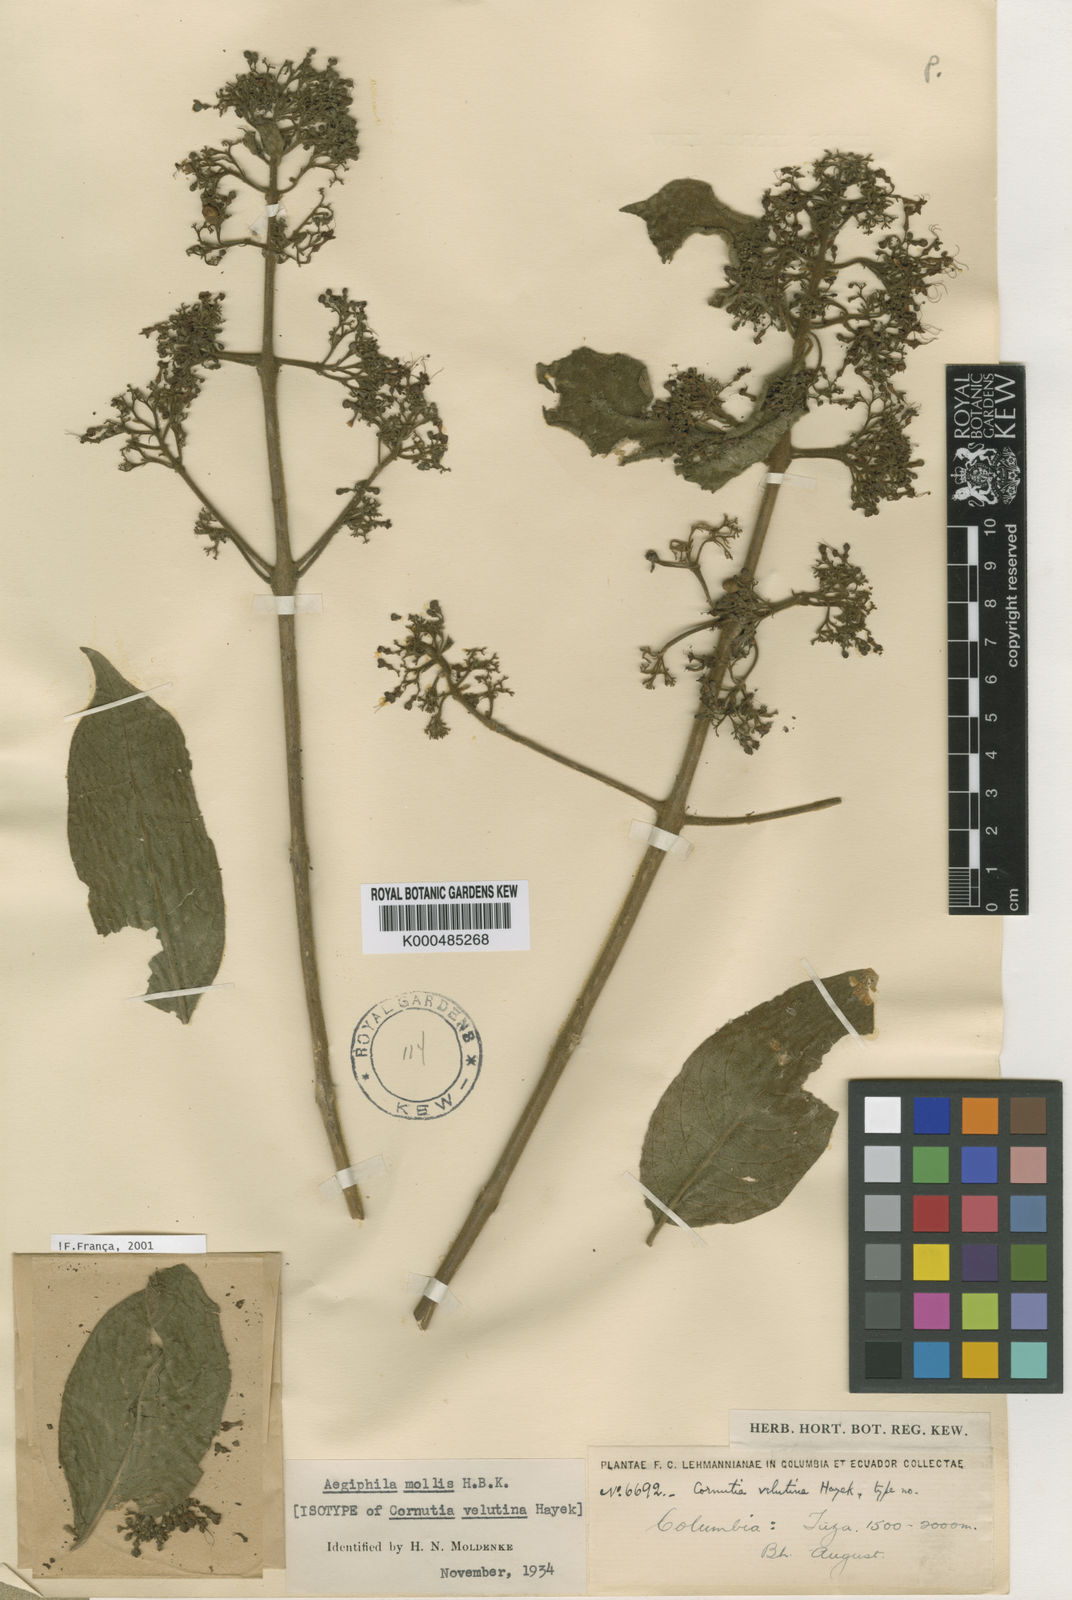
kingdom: Plantae
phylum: Tracheophyta
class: Magnoliopsida
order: Lamiales
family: Lamiaceae
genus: Aegiphila
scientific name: Aegiphila mollis
